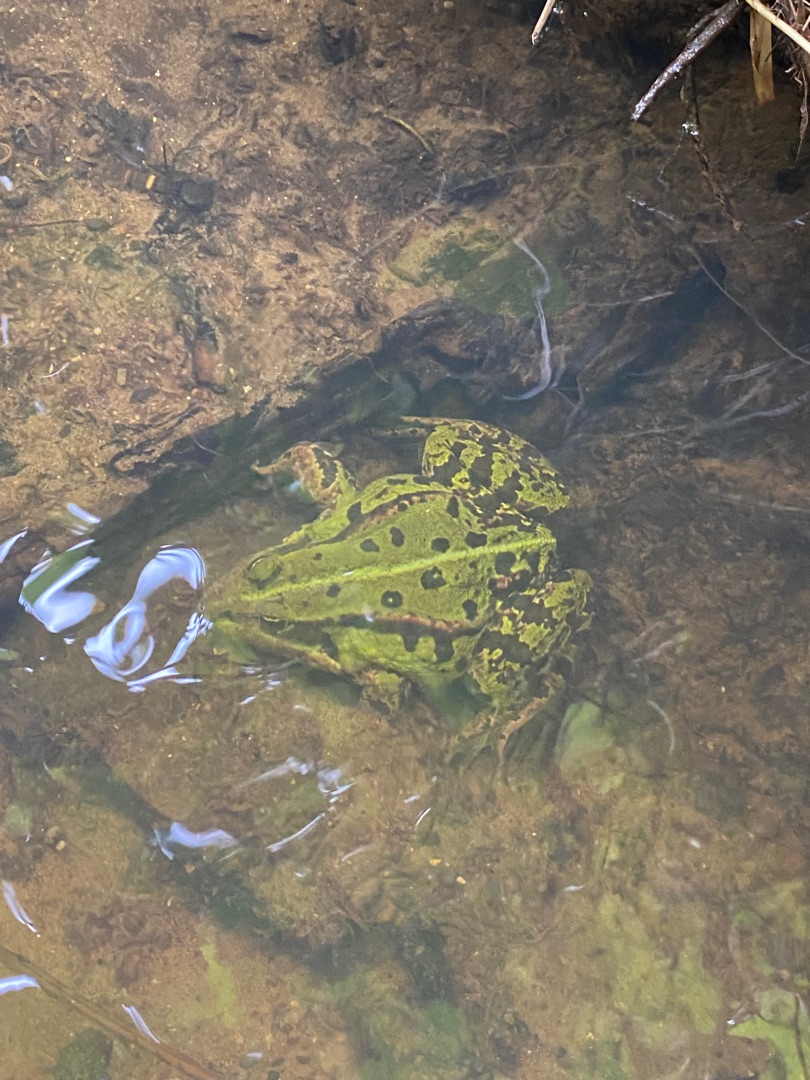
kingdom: Animalia
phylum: Chordata
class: Amphibia
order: Anura
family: Ranidae
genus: Pelophylax
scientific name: Pelophylax lessonae
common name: Grøn frø
